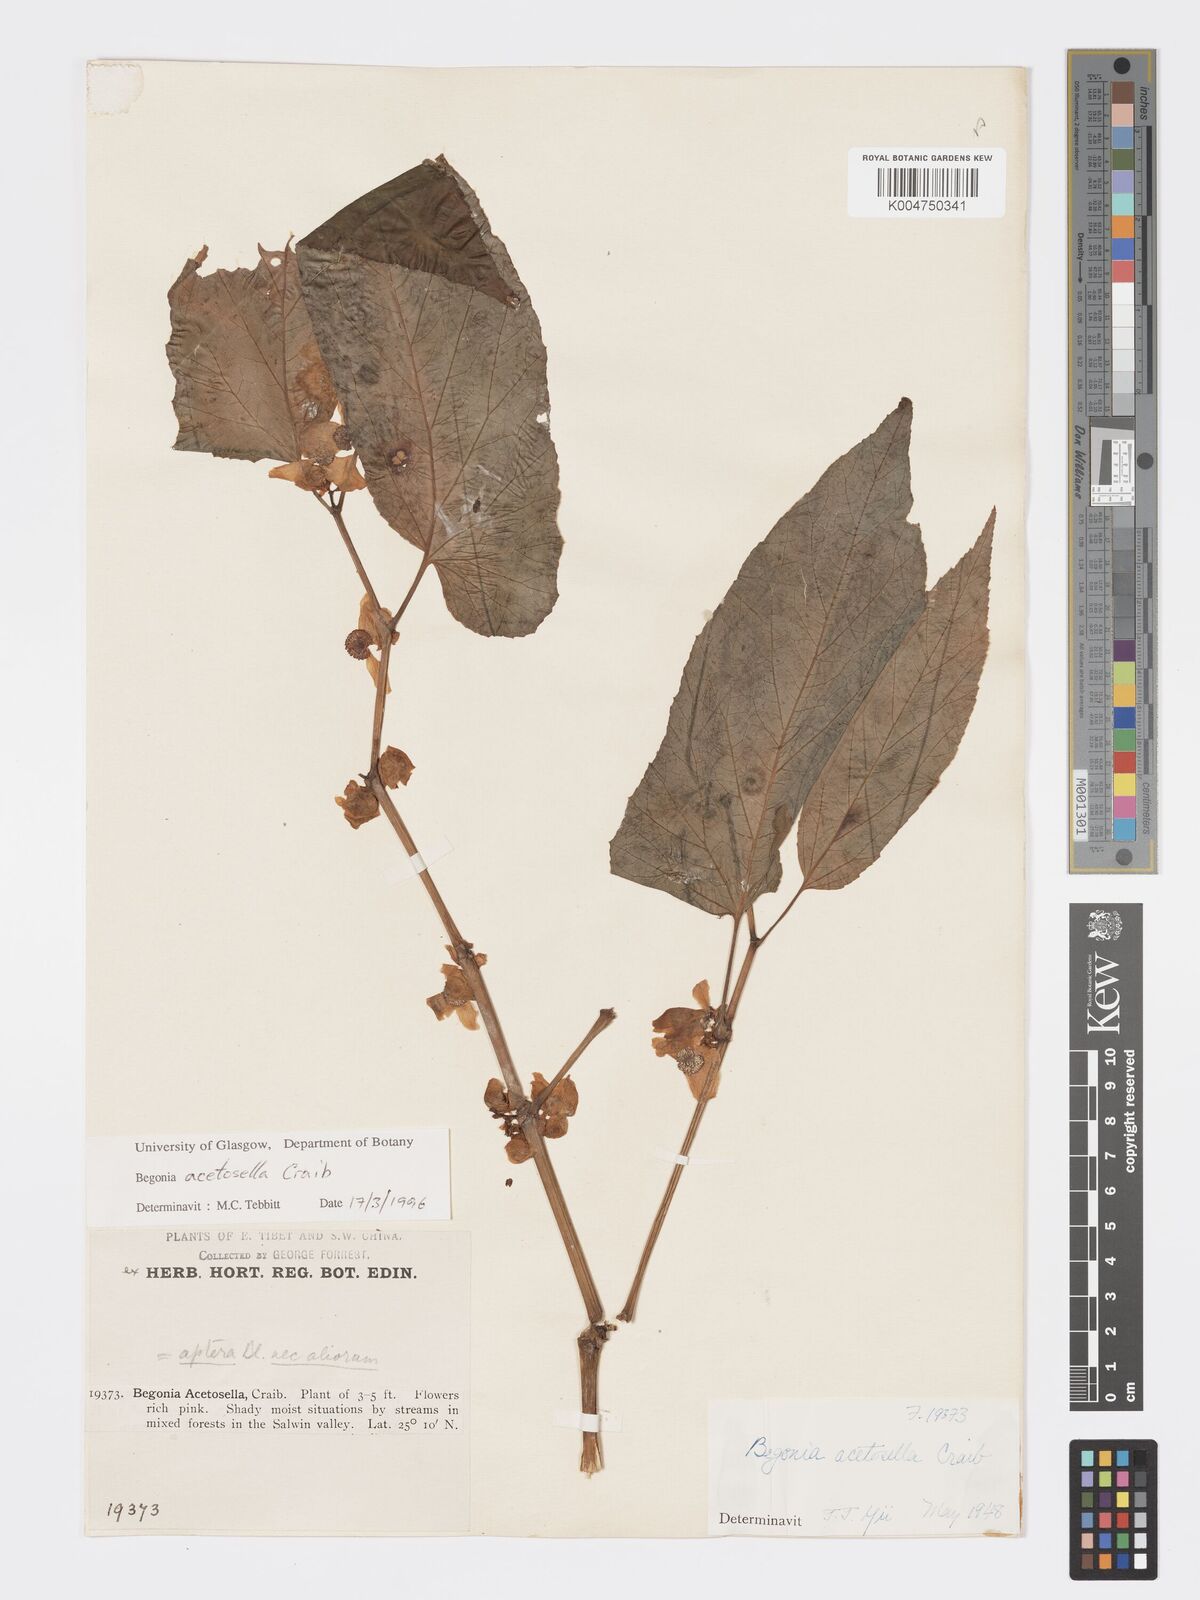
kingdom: Plantae
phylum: Tracheophyta
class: Magnoliopsida
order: Cucurbitales
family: Begoniaceae
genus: Begonia
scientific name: Begonia acetosella
